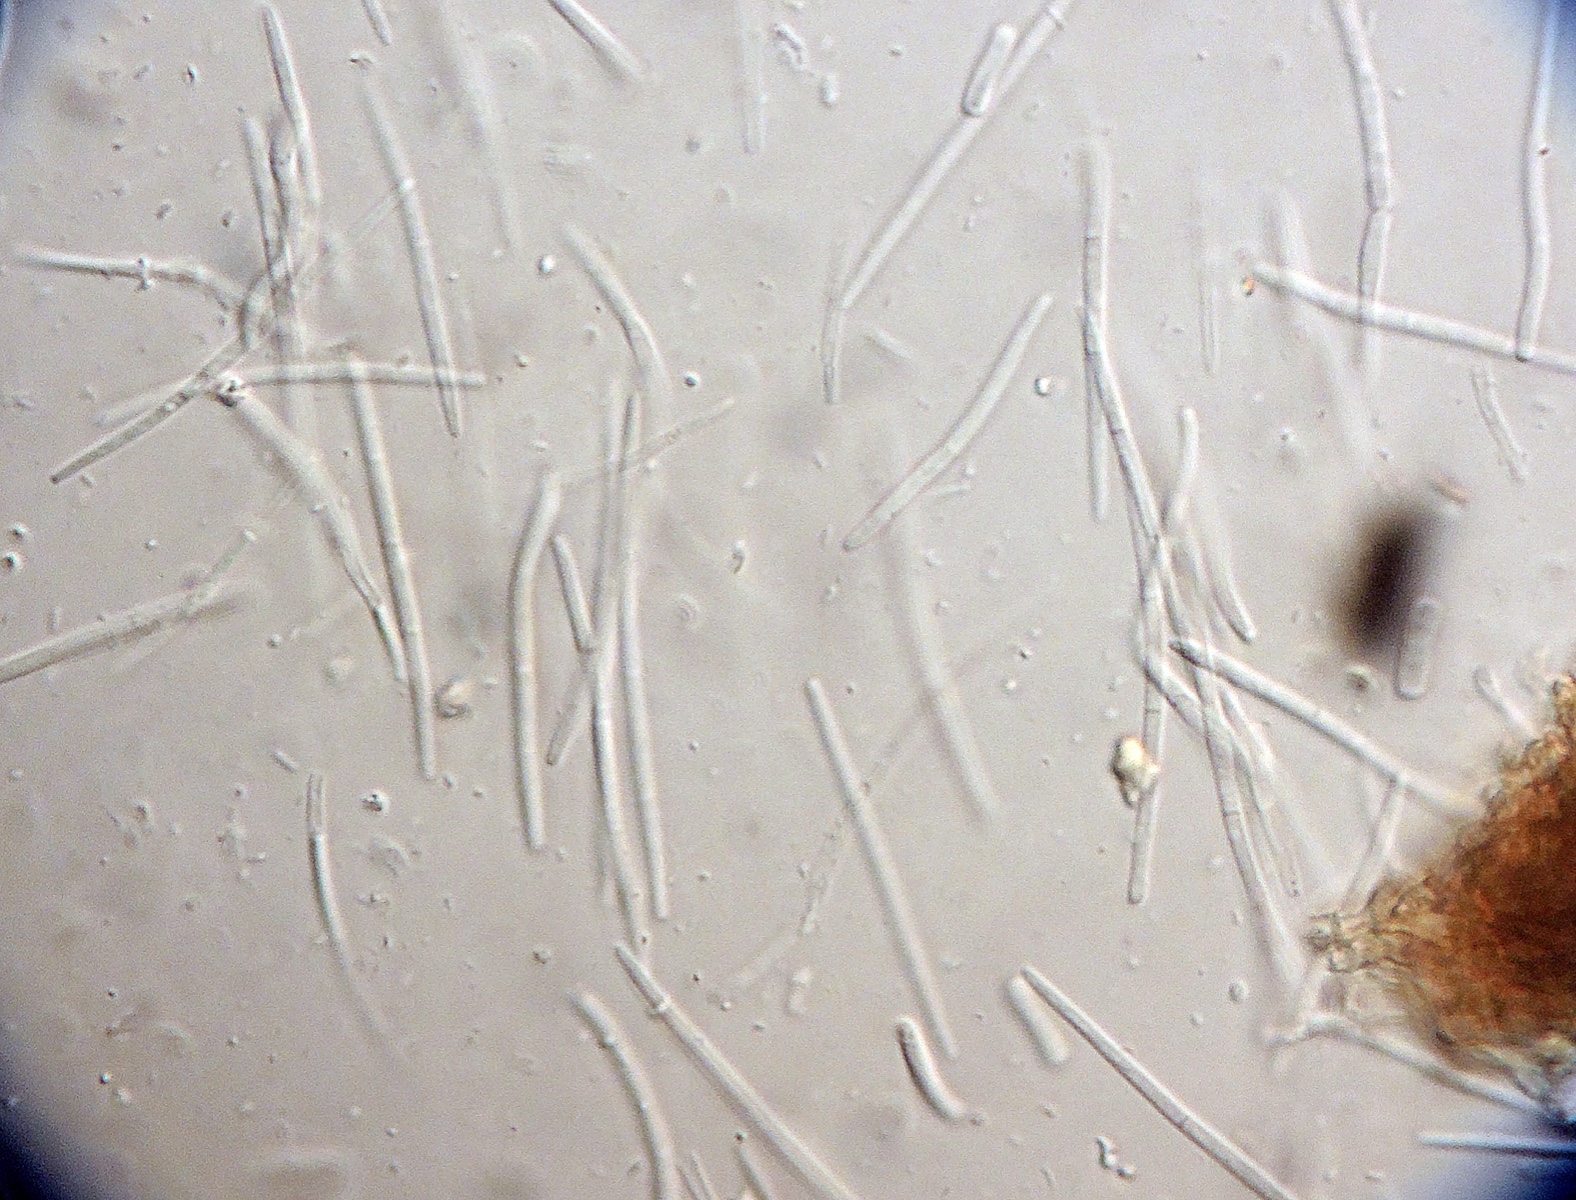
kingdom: Fungi
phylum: Ascomycota
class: Dothideomycetes
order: Mycosphaerellales
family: Mycosphaerellaceae
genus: Septoria
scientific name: Septoria cerastii
